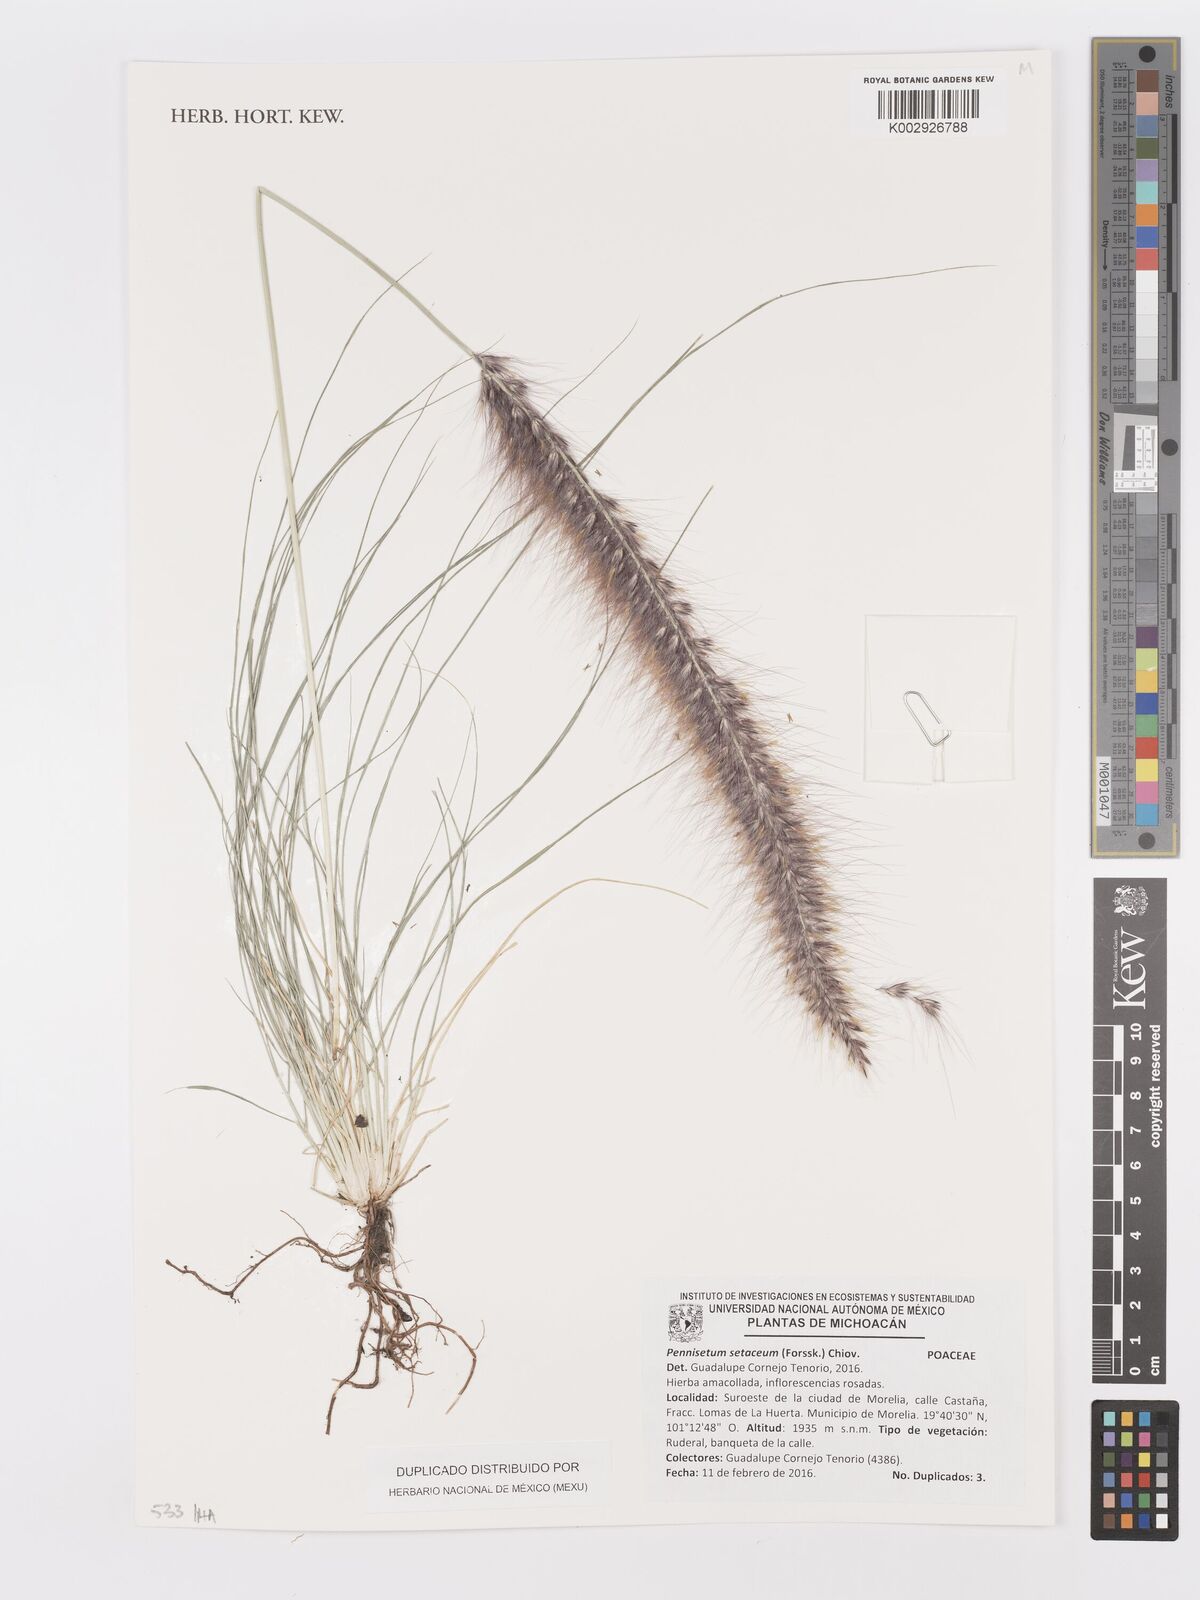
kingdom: Plantae
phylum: Tracheophyta
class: Liliopsida
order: Poales
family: Poaceae
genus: Cenchrus
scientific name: Cenchrus setaceus
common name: Crimson fountaingrass
